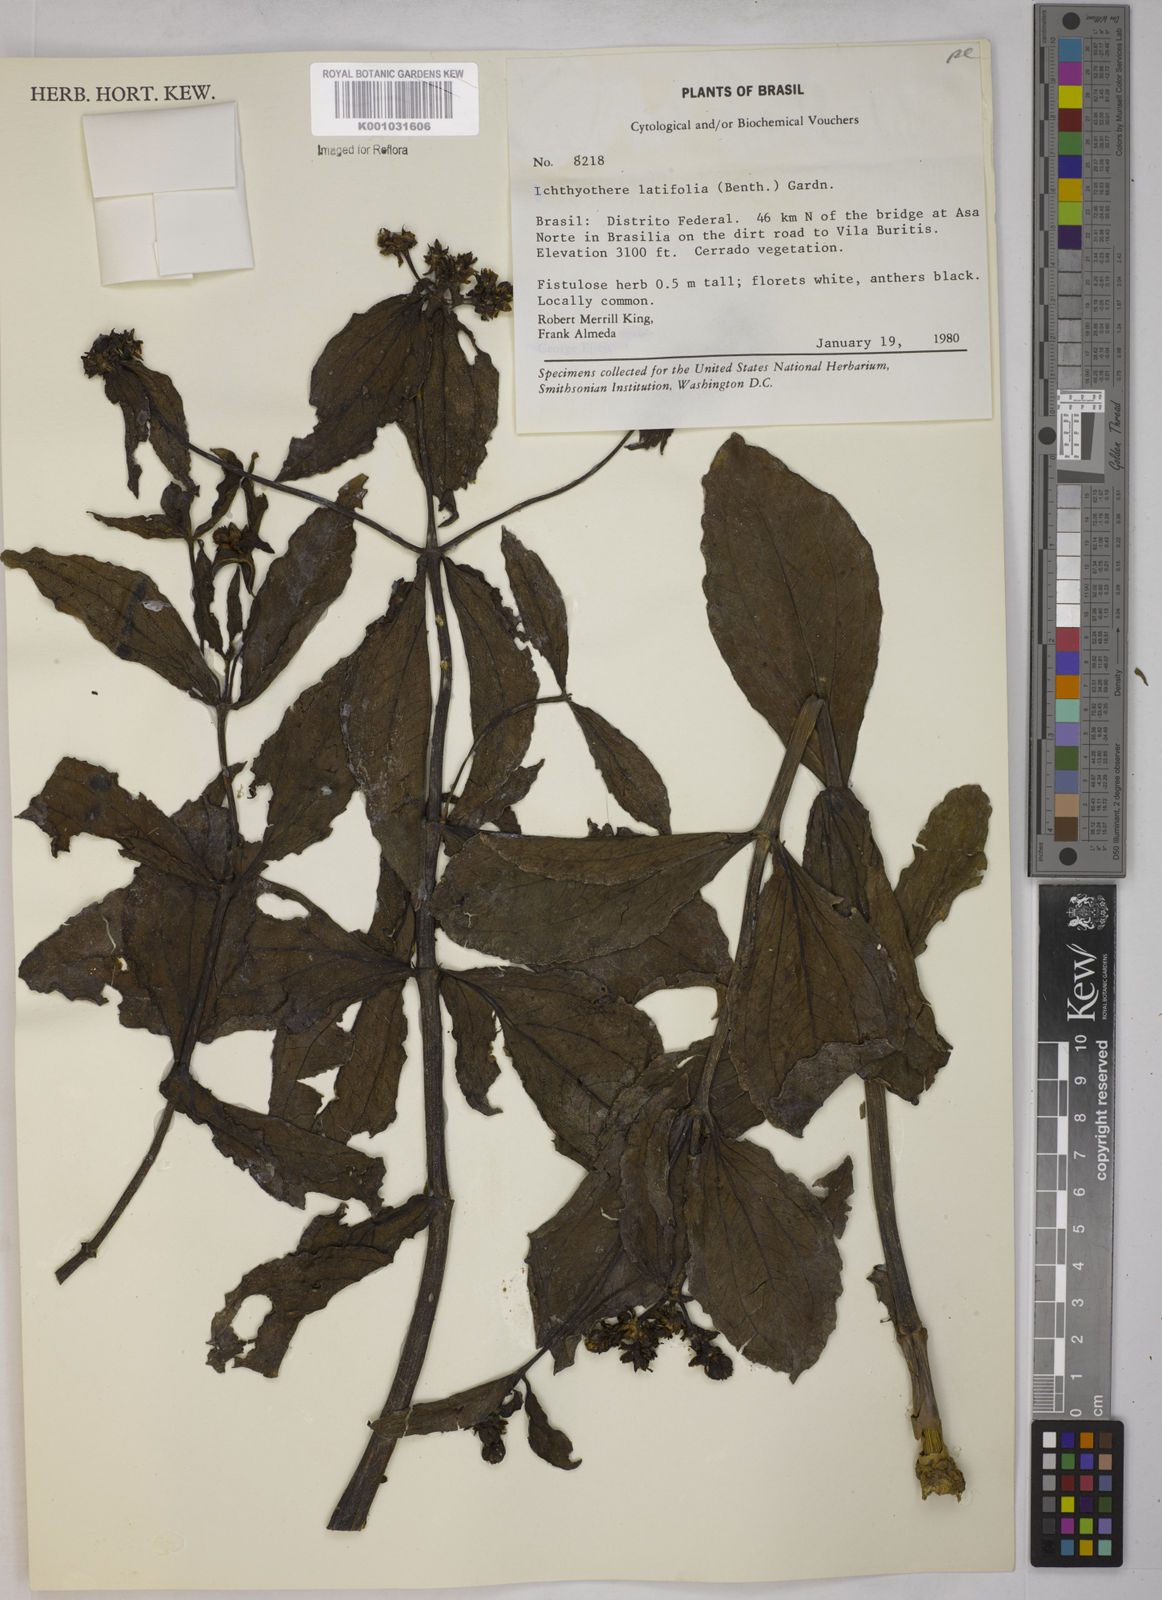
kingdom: Plantae
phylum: Tracheophyta
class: Magnoliopsida
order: Asterales
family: Asteraceae
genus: Ichthyothere
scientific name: Ichthyothere latifolia
